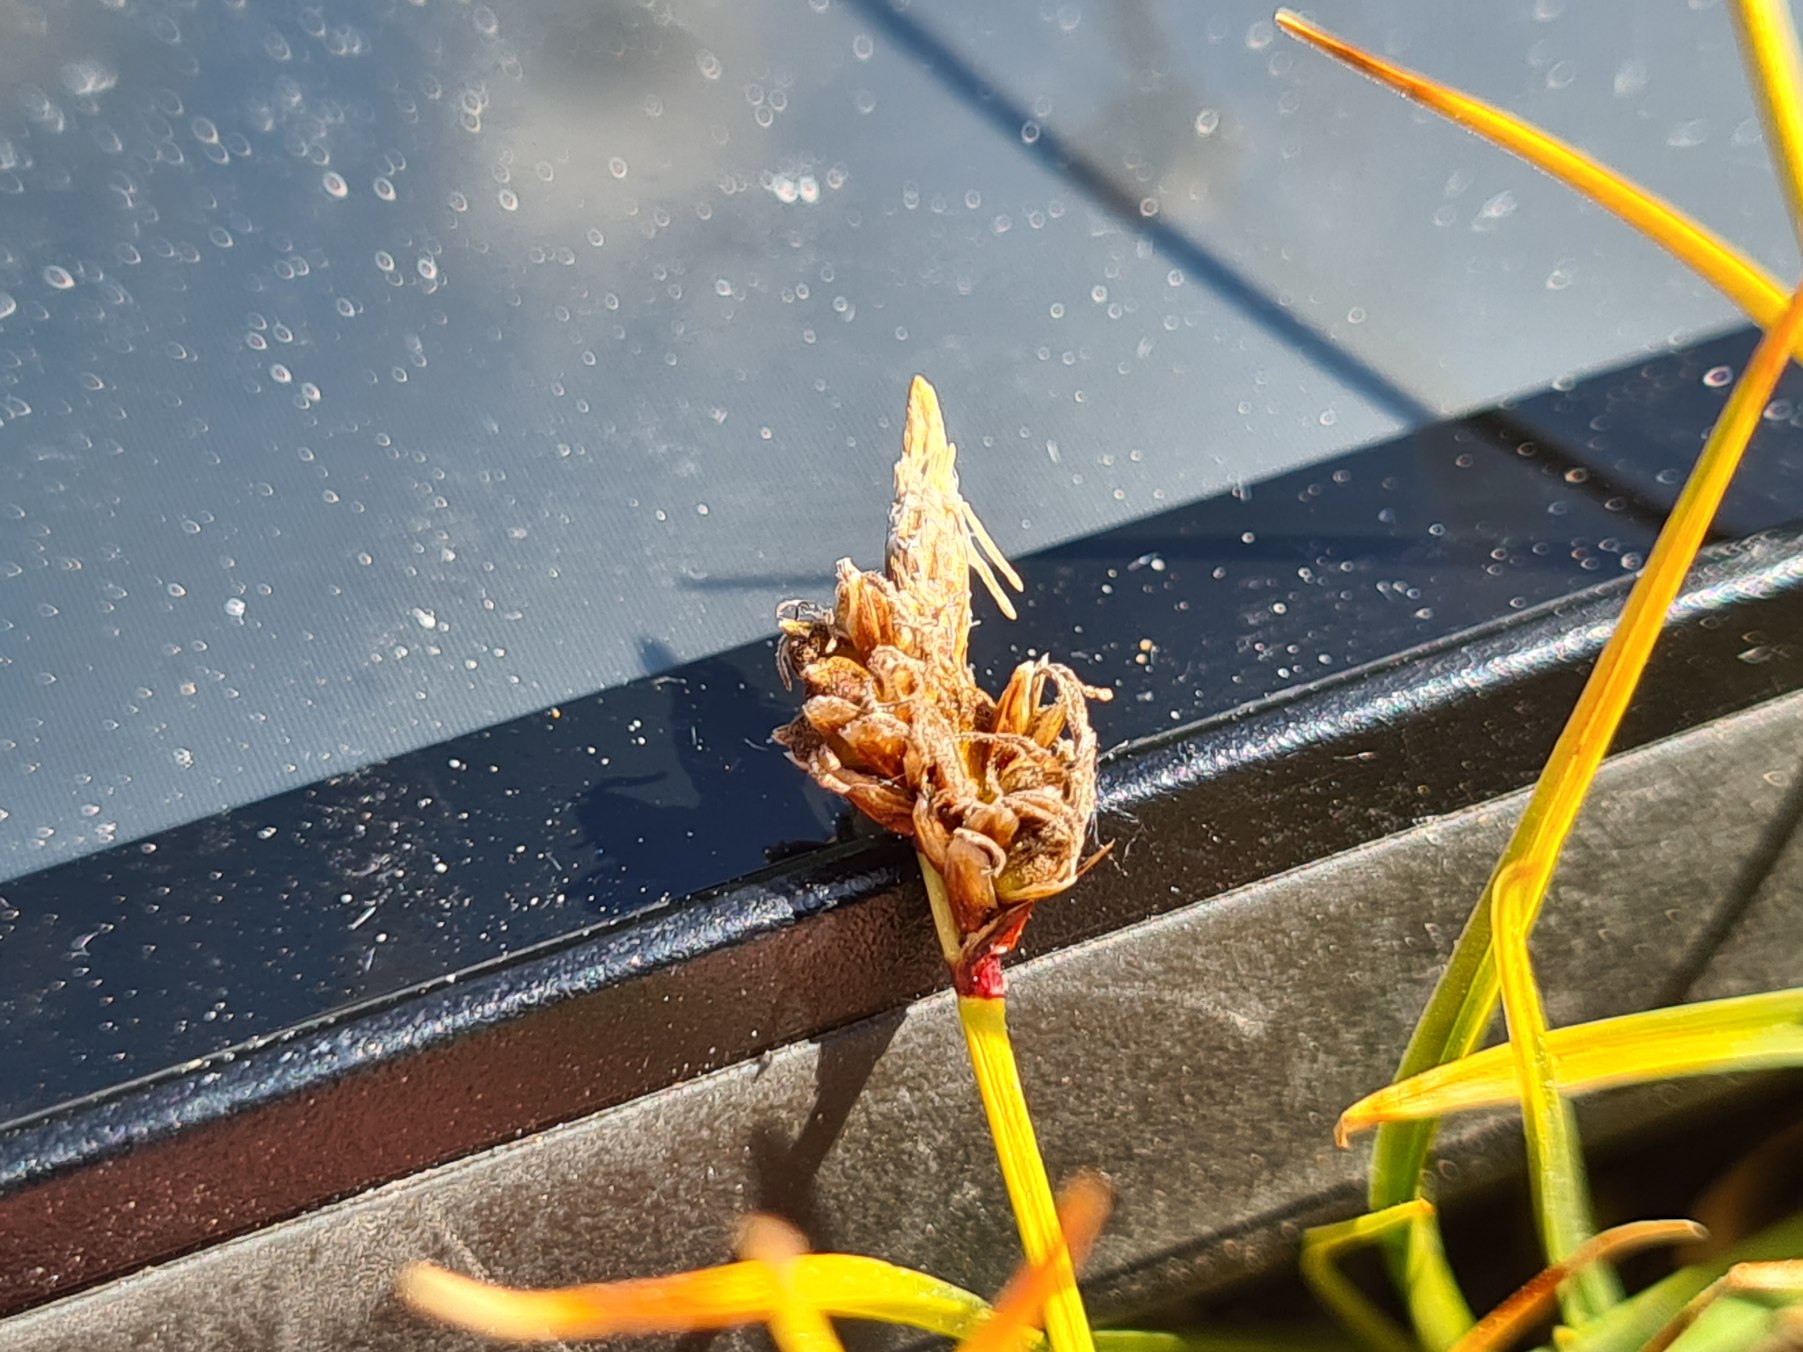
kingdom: Plantae
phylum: Tracheophyta
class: Liliopsida
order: Poales
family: Cyperaceae
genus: Carex
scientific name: Carex ericetorum
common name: Lyng-star
